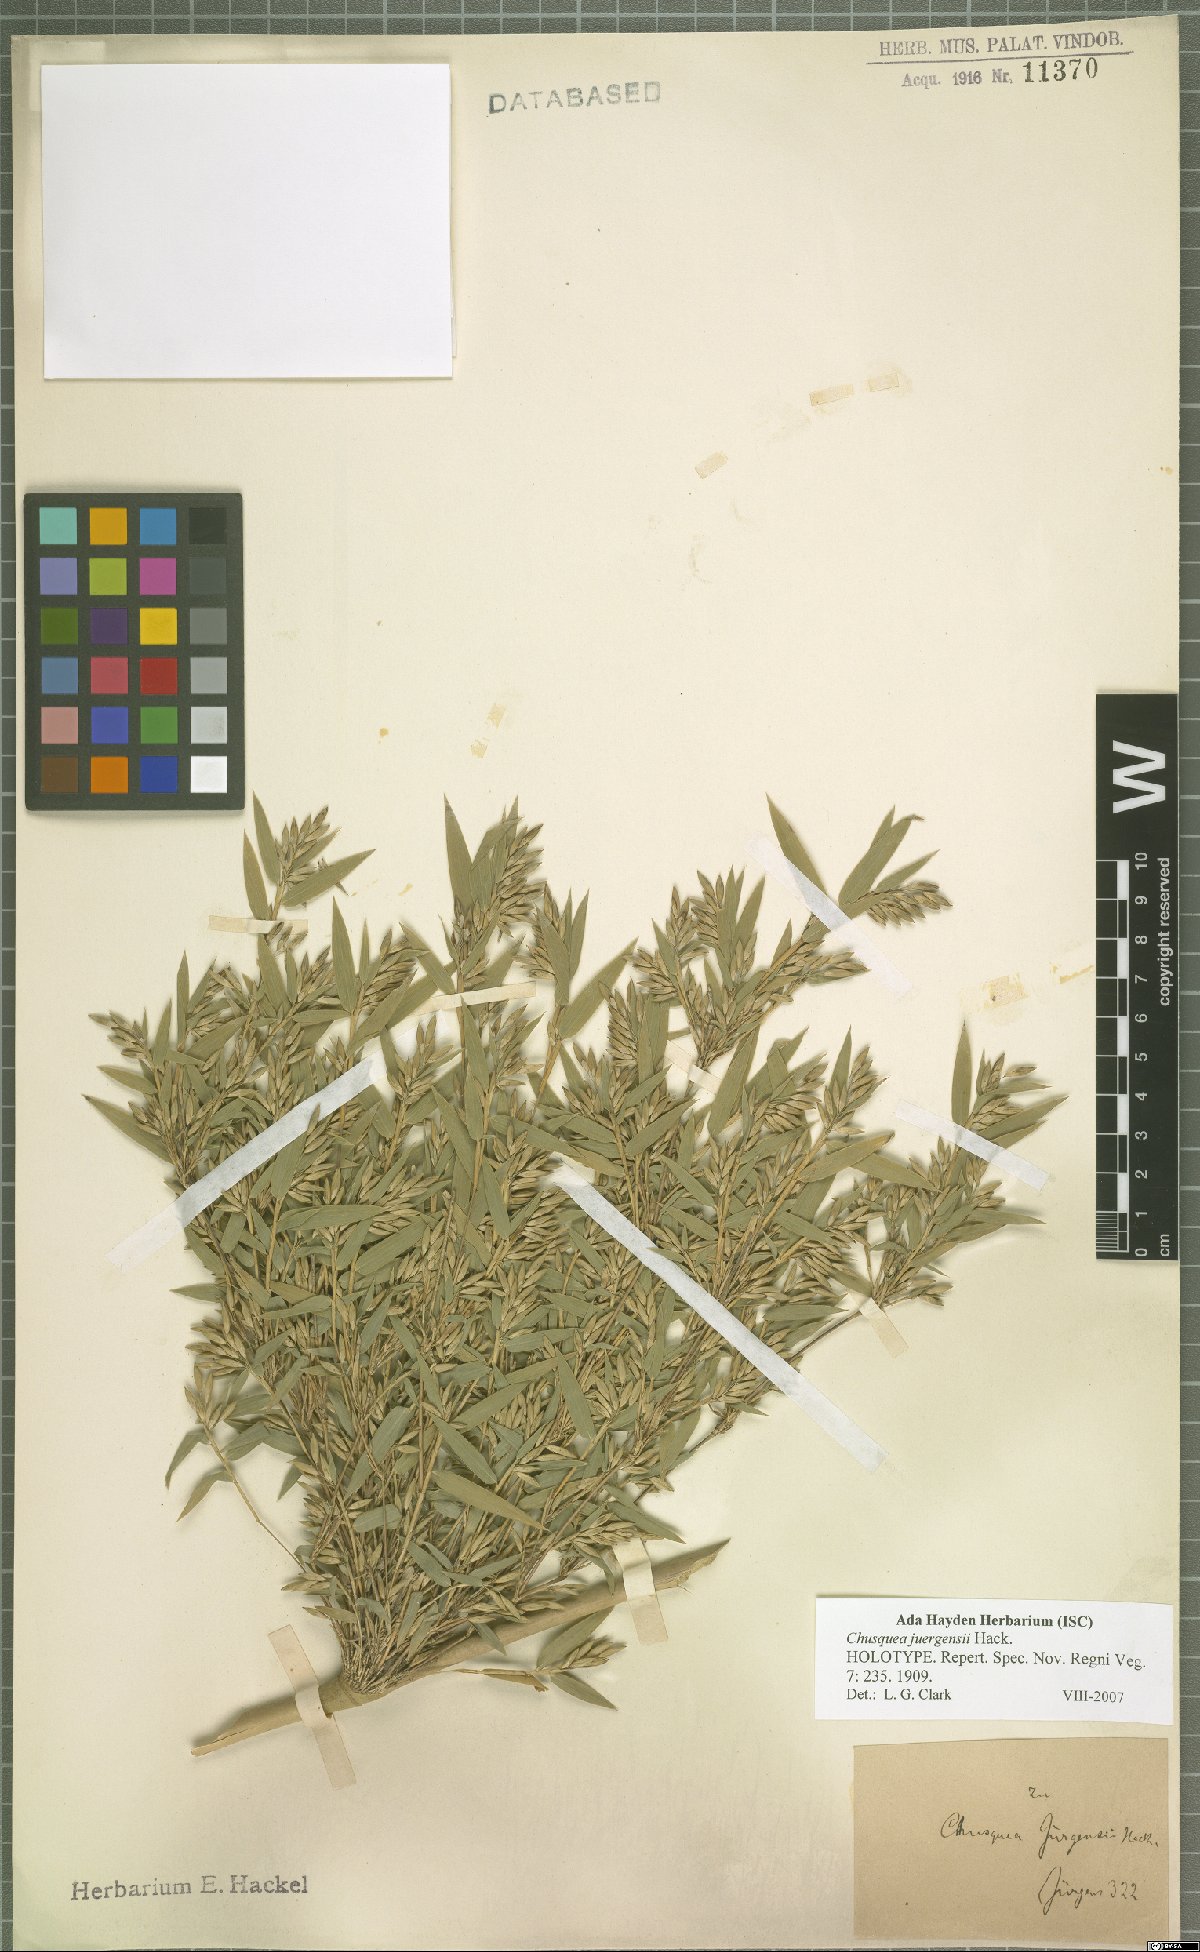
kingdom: Plantae
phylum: Tracheophyta
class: Liliopsida
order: Poales
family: Poaceae
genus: Chusquea
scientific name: Chusquea juergensii
